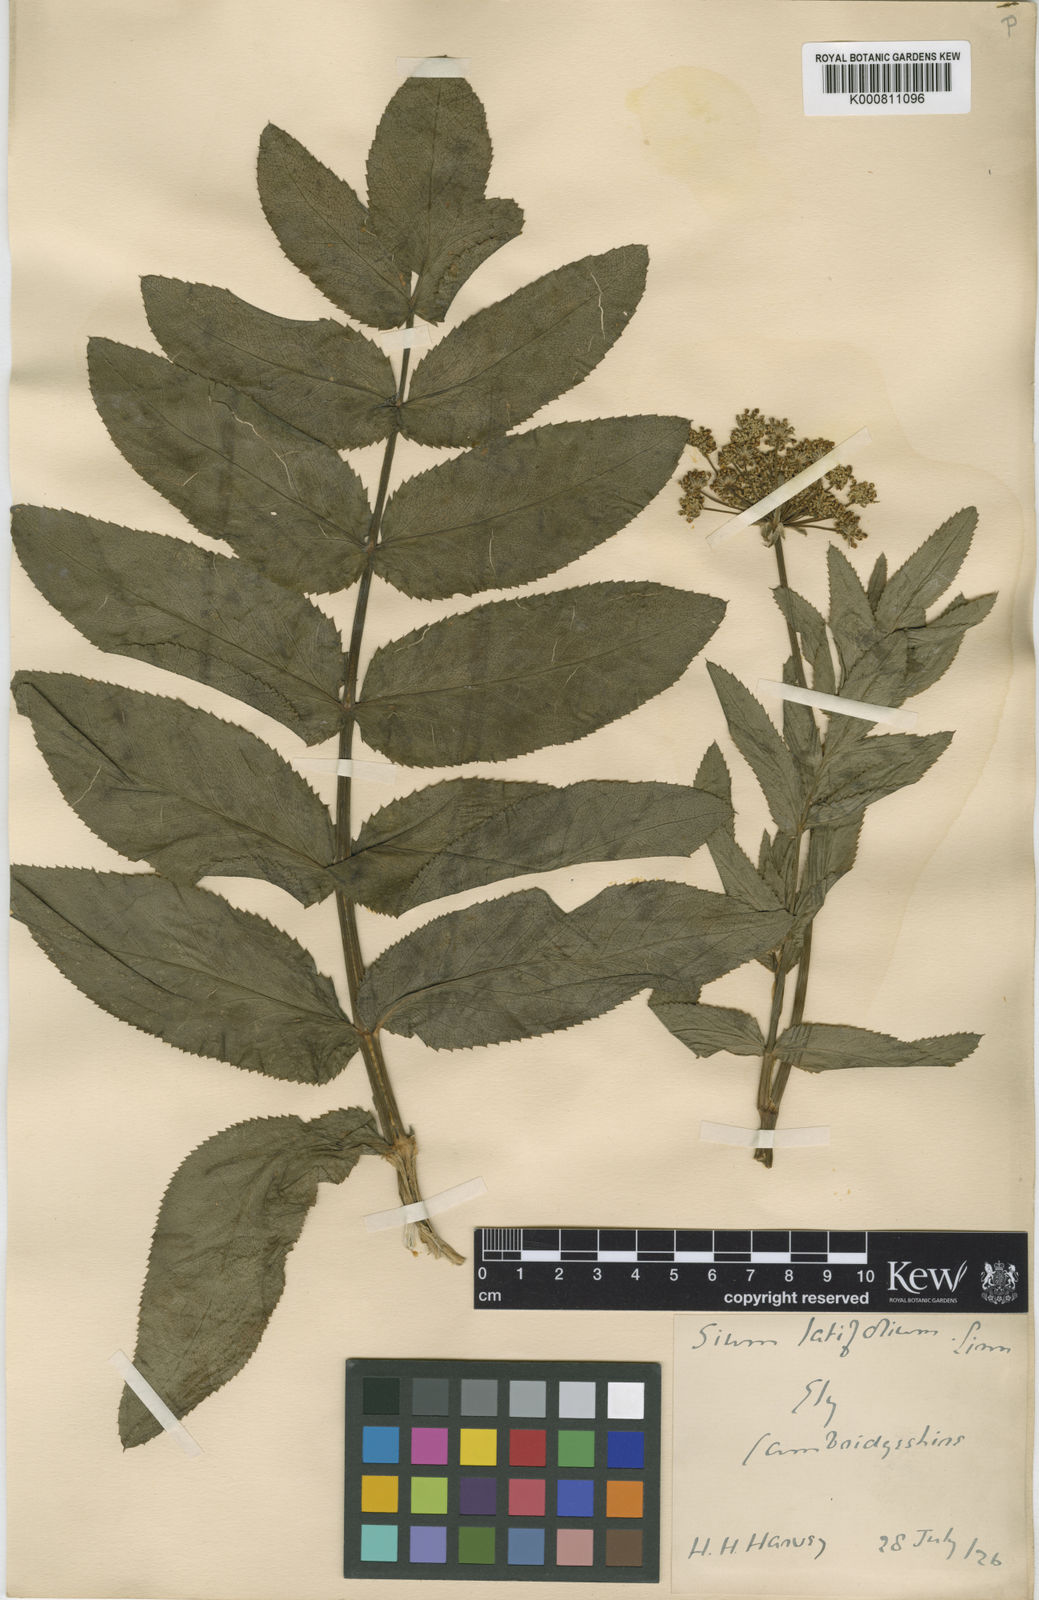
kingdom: Plantae
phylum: Tracheophyta
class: Magnoliopsida
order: Apiales
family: Apiaceae
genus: Sium
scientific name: Sium latifolium
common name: Greater water-parsnip
